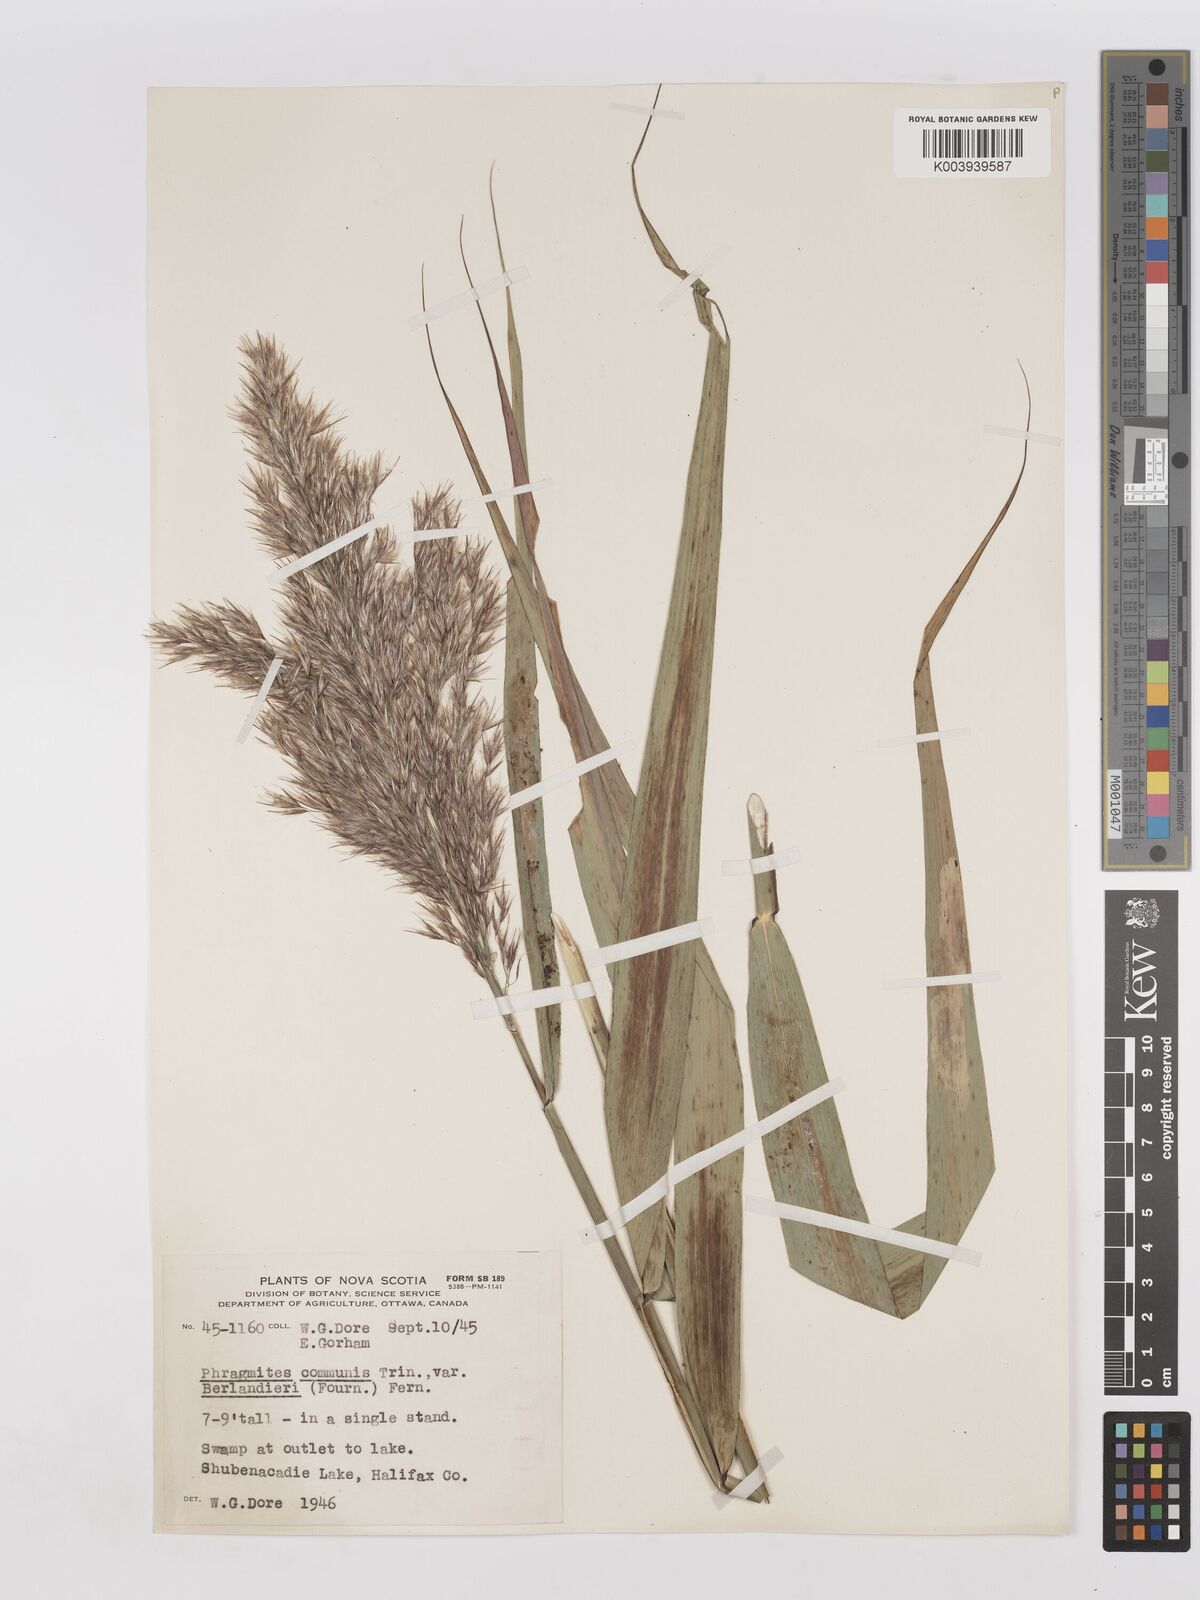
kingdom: Plantae
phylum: Tracheophyta
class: Liliopsida
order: Poales
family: Poaceae
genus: Phragmites
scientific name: Phragmites australis
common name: Common reed
